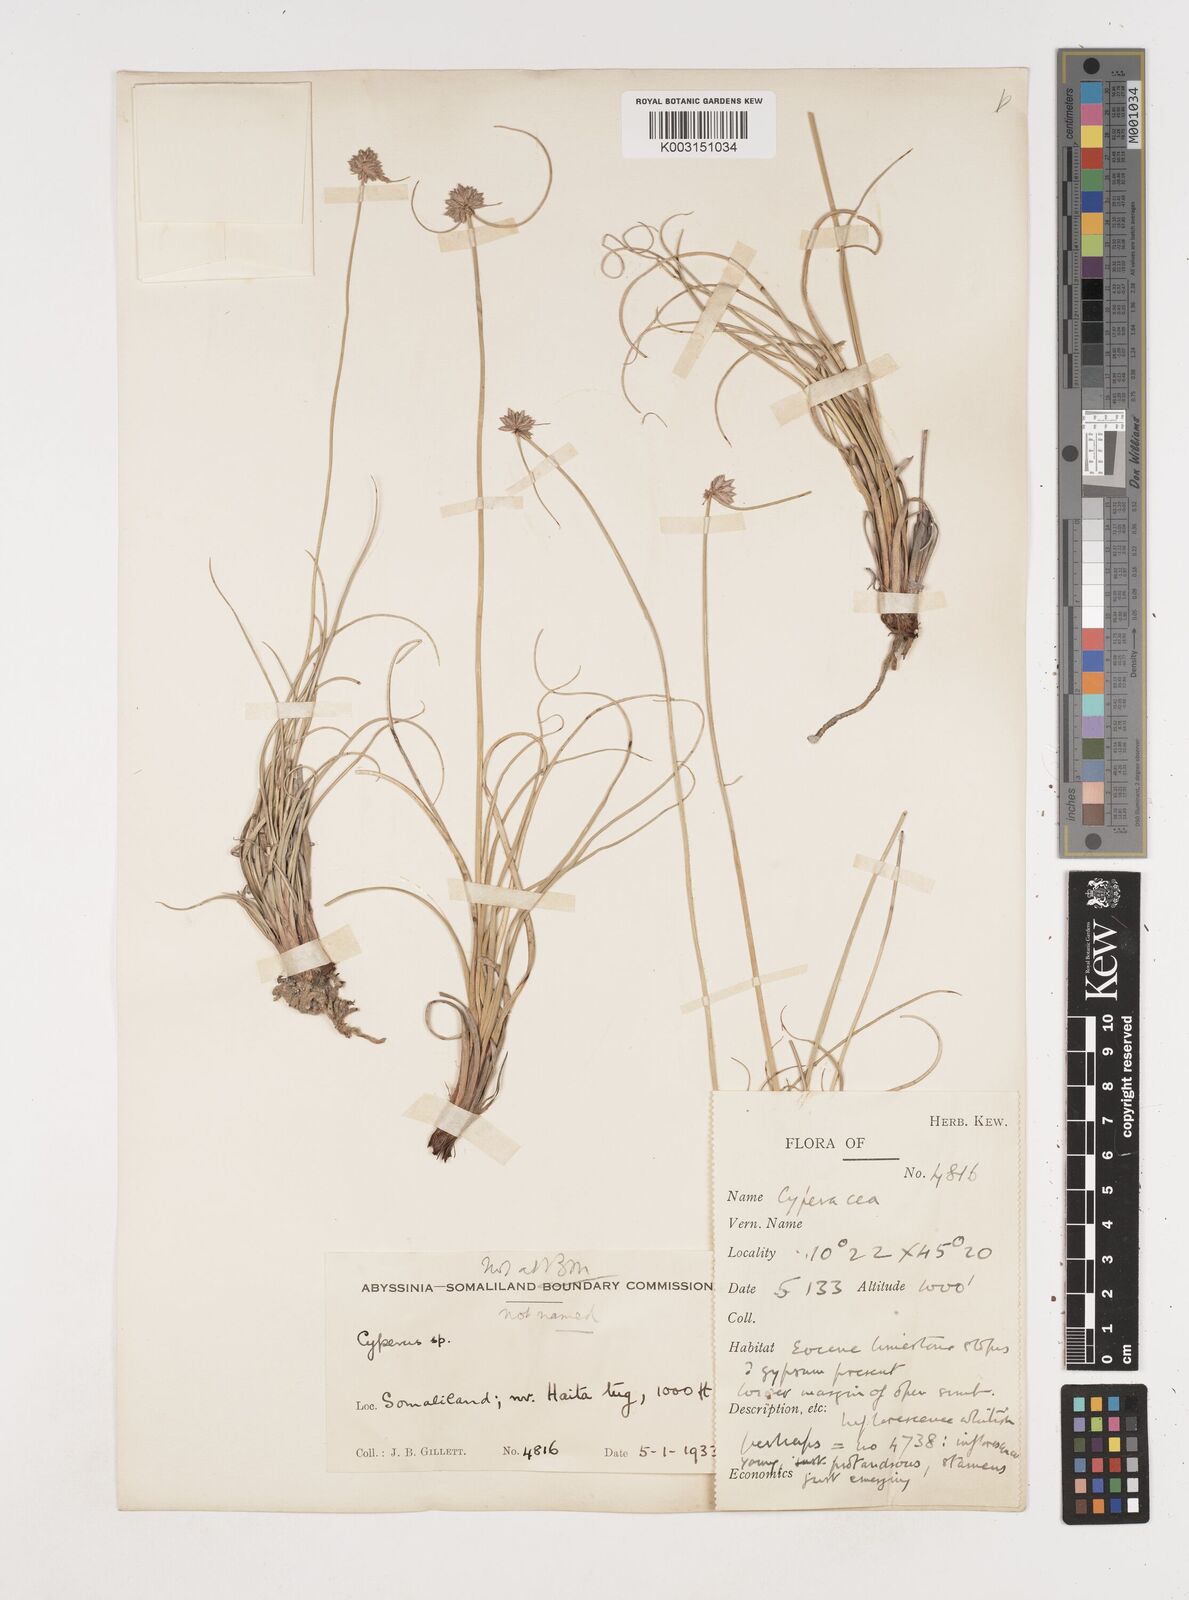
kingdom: Plantae
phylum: Tracheophyta
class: Liliopsida
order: Poales
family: Cyperaceae
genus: Cyperus
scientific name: Cyperus conglomeratus
